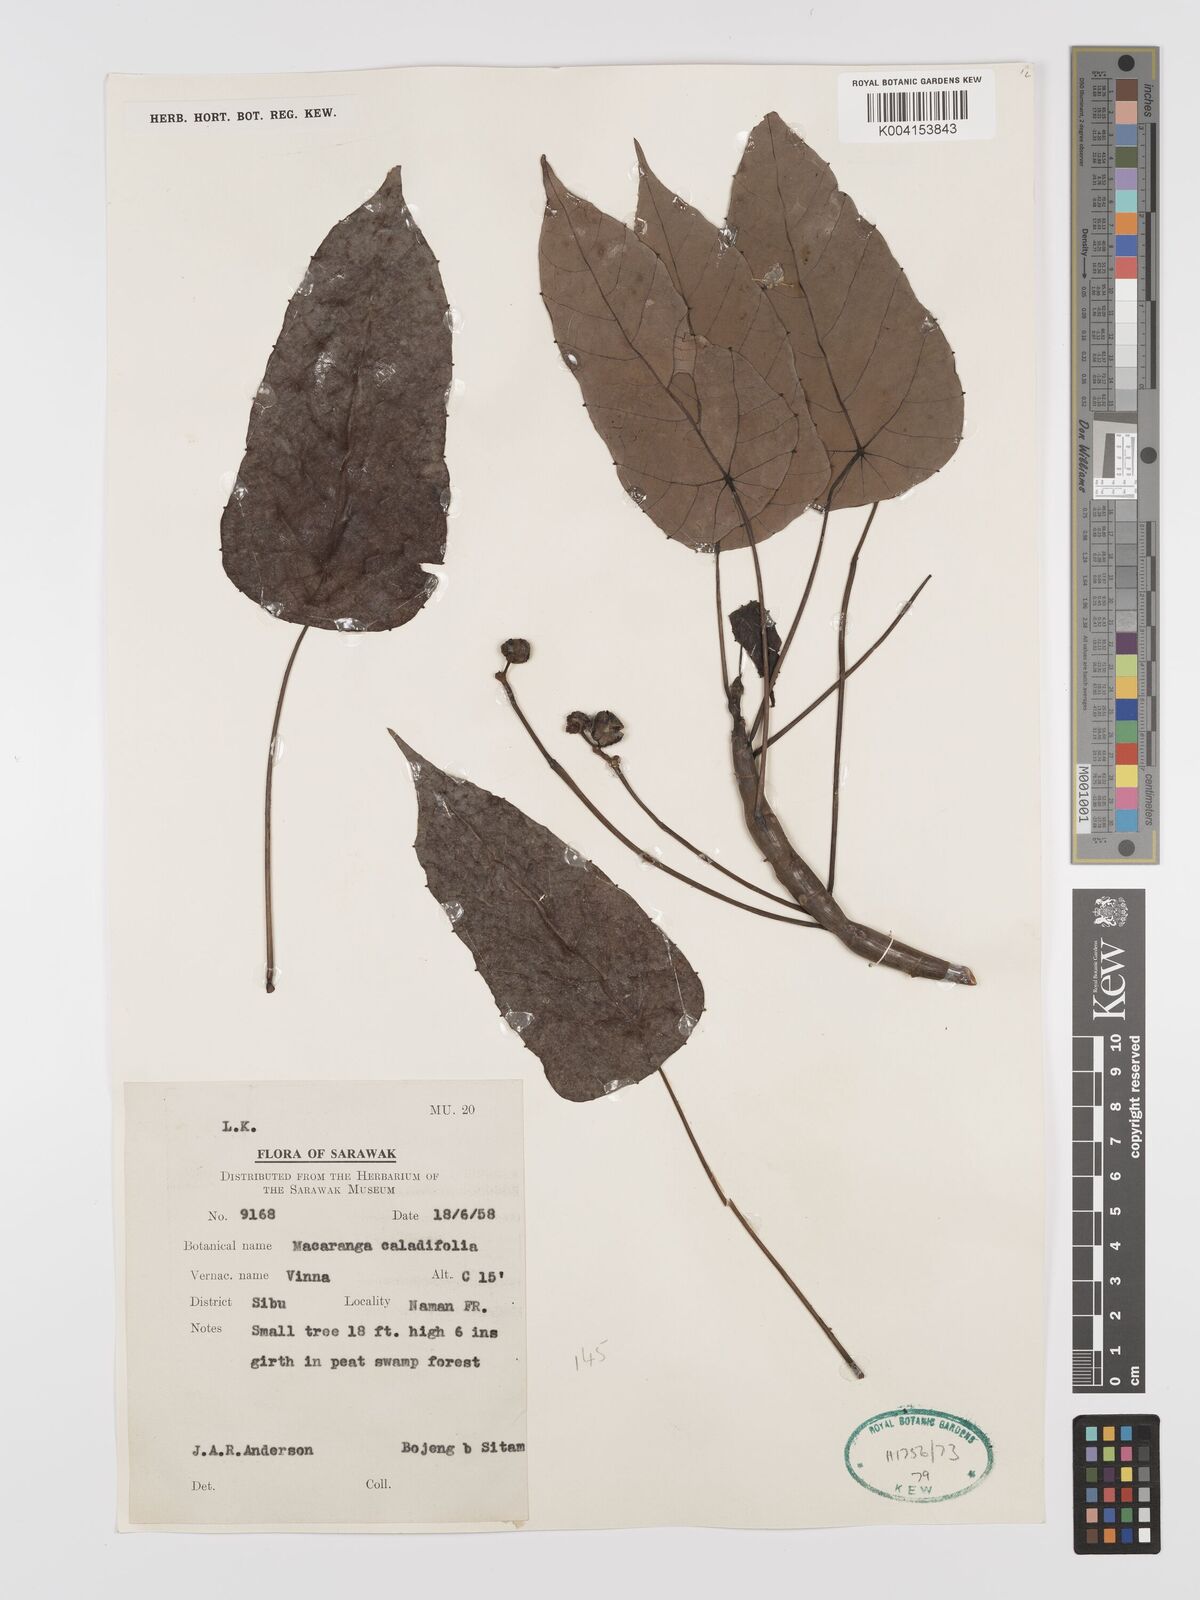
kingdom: Plantae
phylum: Tracheophyta
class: Magnoliopsida
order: Malpighiales
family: Euphorbiaceae
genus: Macaranga
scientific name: Macaranga caladiifolia
